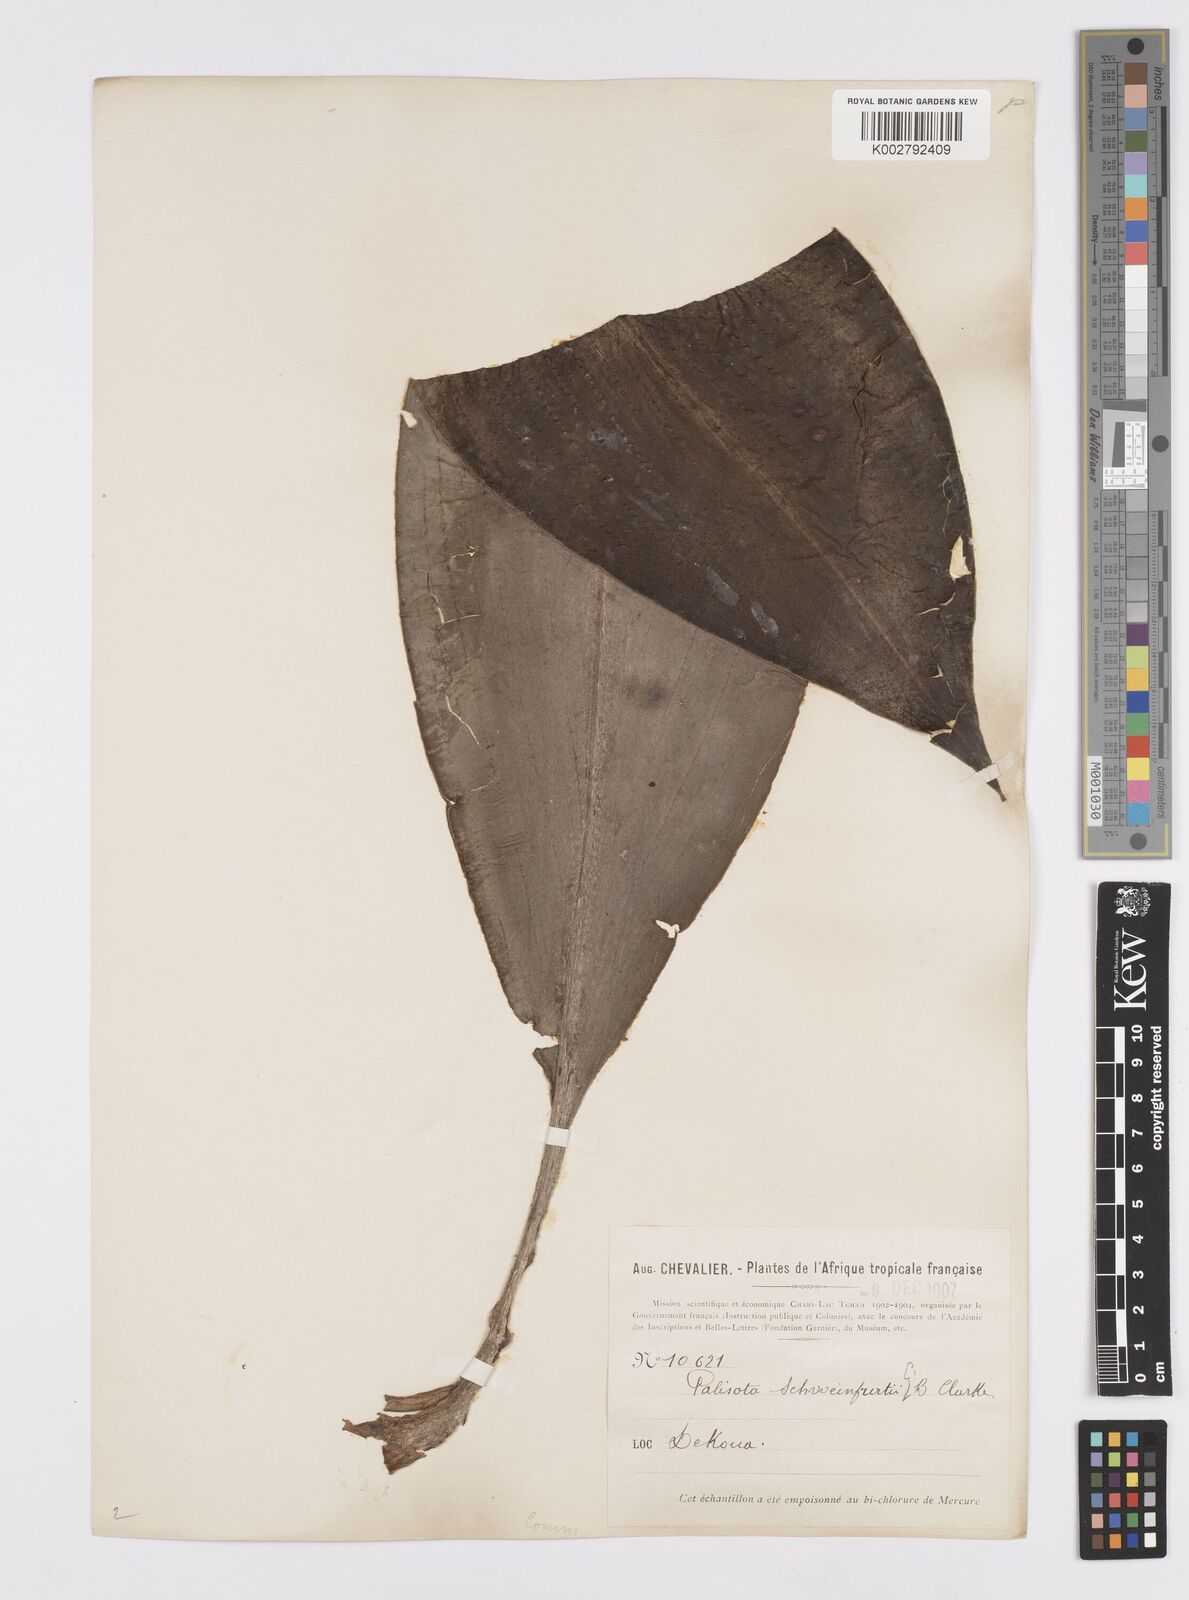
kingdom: Plantae
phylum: Tracheophyta
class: Liliopsida
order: Commelinales
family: Commelinaceae
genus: Palisota
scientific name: Palisota schweinfurthii
